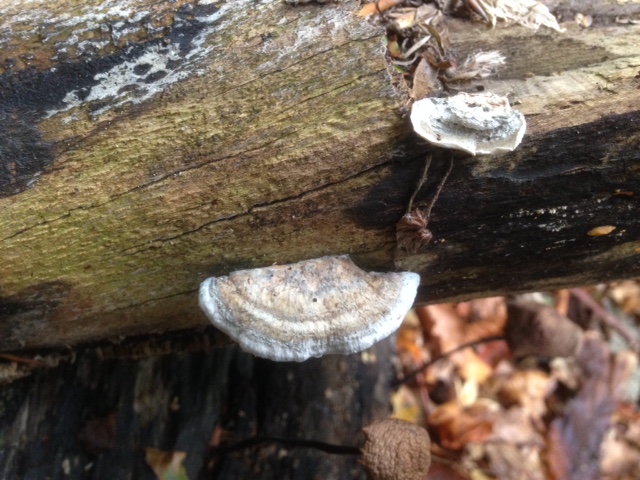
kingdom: Fungi
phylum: Basidiomycota
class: Agaricomycetes
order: Polyporales
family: Polyporaceae
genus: Cyanosporus
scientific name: Cyanosporus alni
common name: blegblå kødporesvamp
